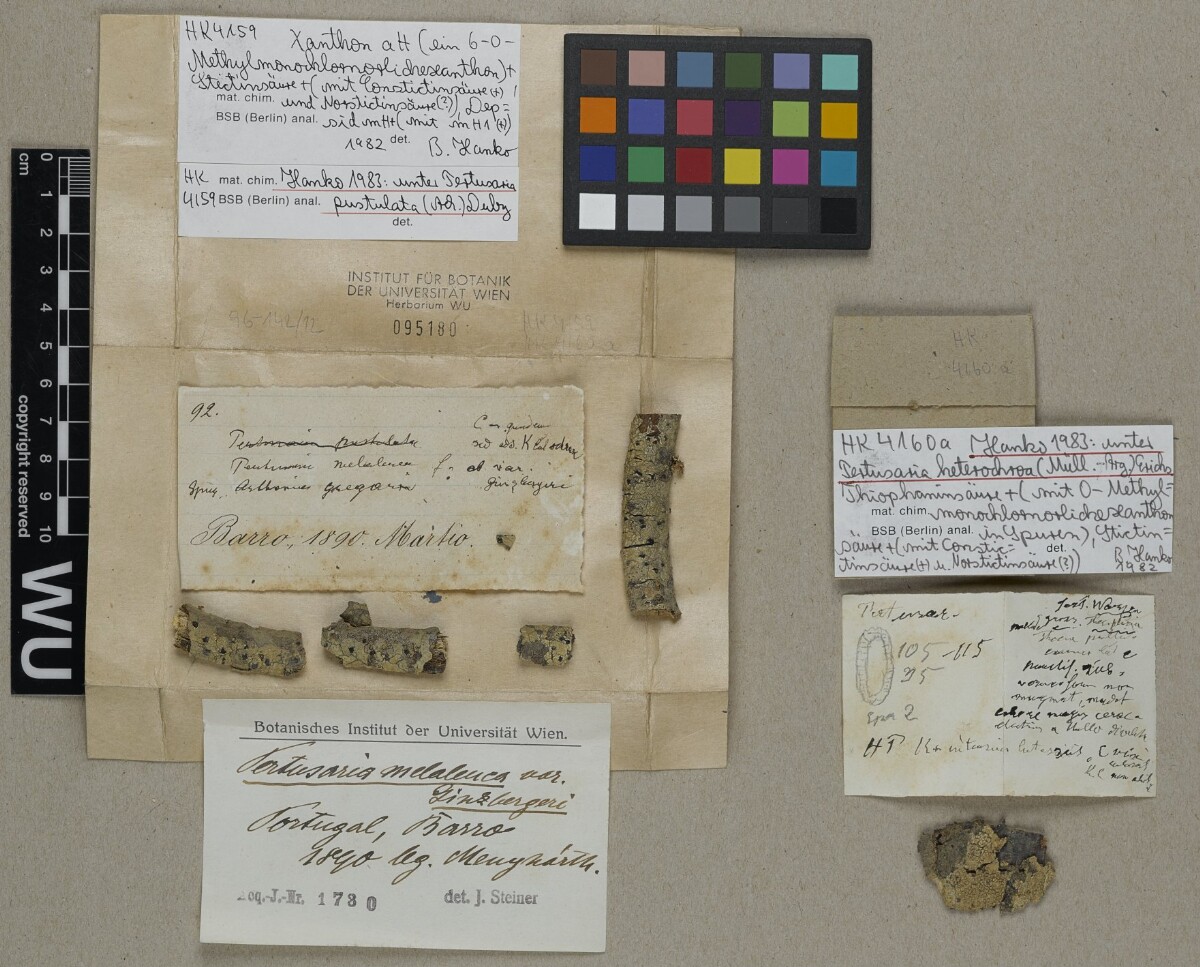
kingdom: Fungi
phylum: Ascomycota
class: Lecanoromycetes
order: Pertusariales
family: Pertusariaceae
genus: Pertusaria
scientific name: Pertusaria pustulata
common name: Branch bumps
